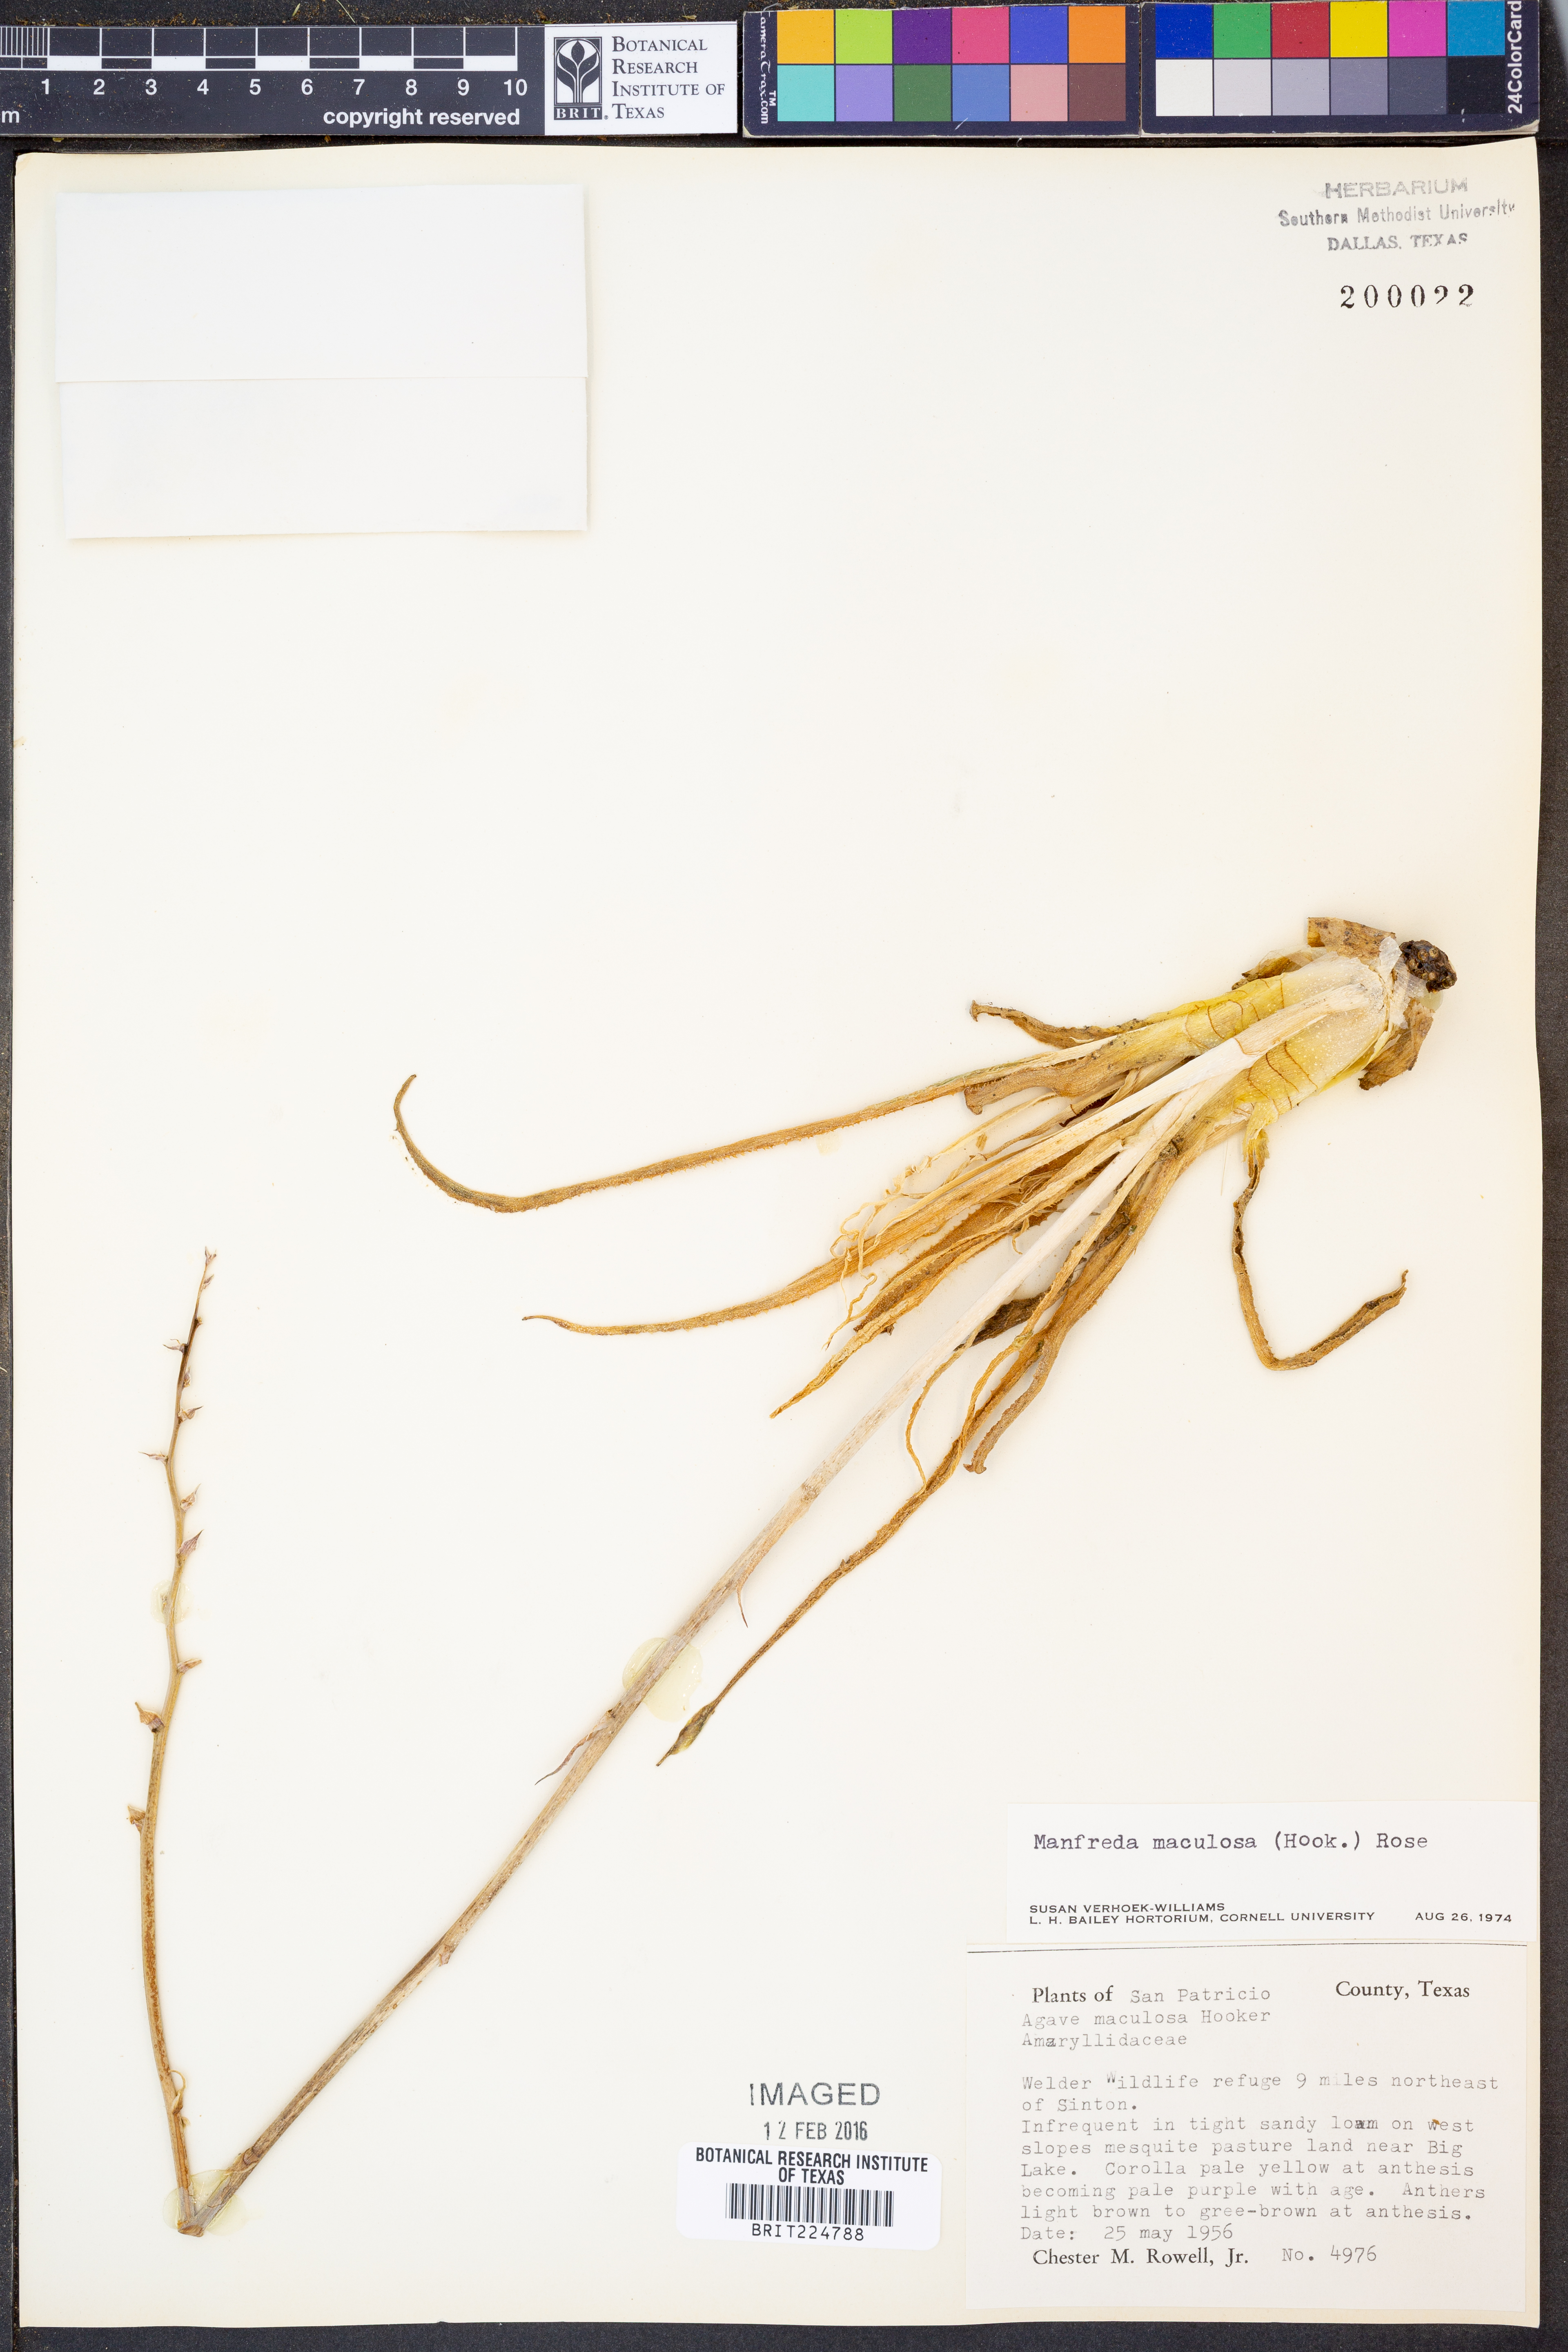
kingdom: Plantae
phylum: Tracheophyta
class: Liliopsida
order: Asparagales
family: Asparagaceae
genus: Agave
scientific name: Agave maculata
